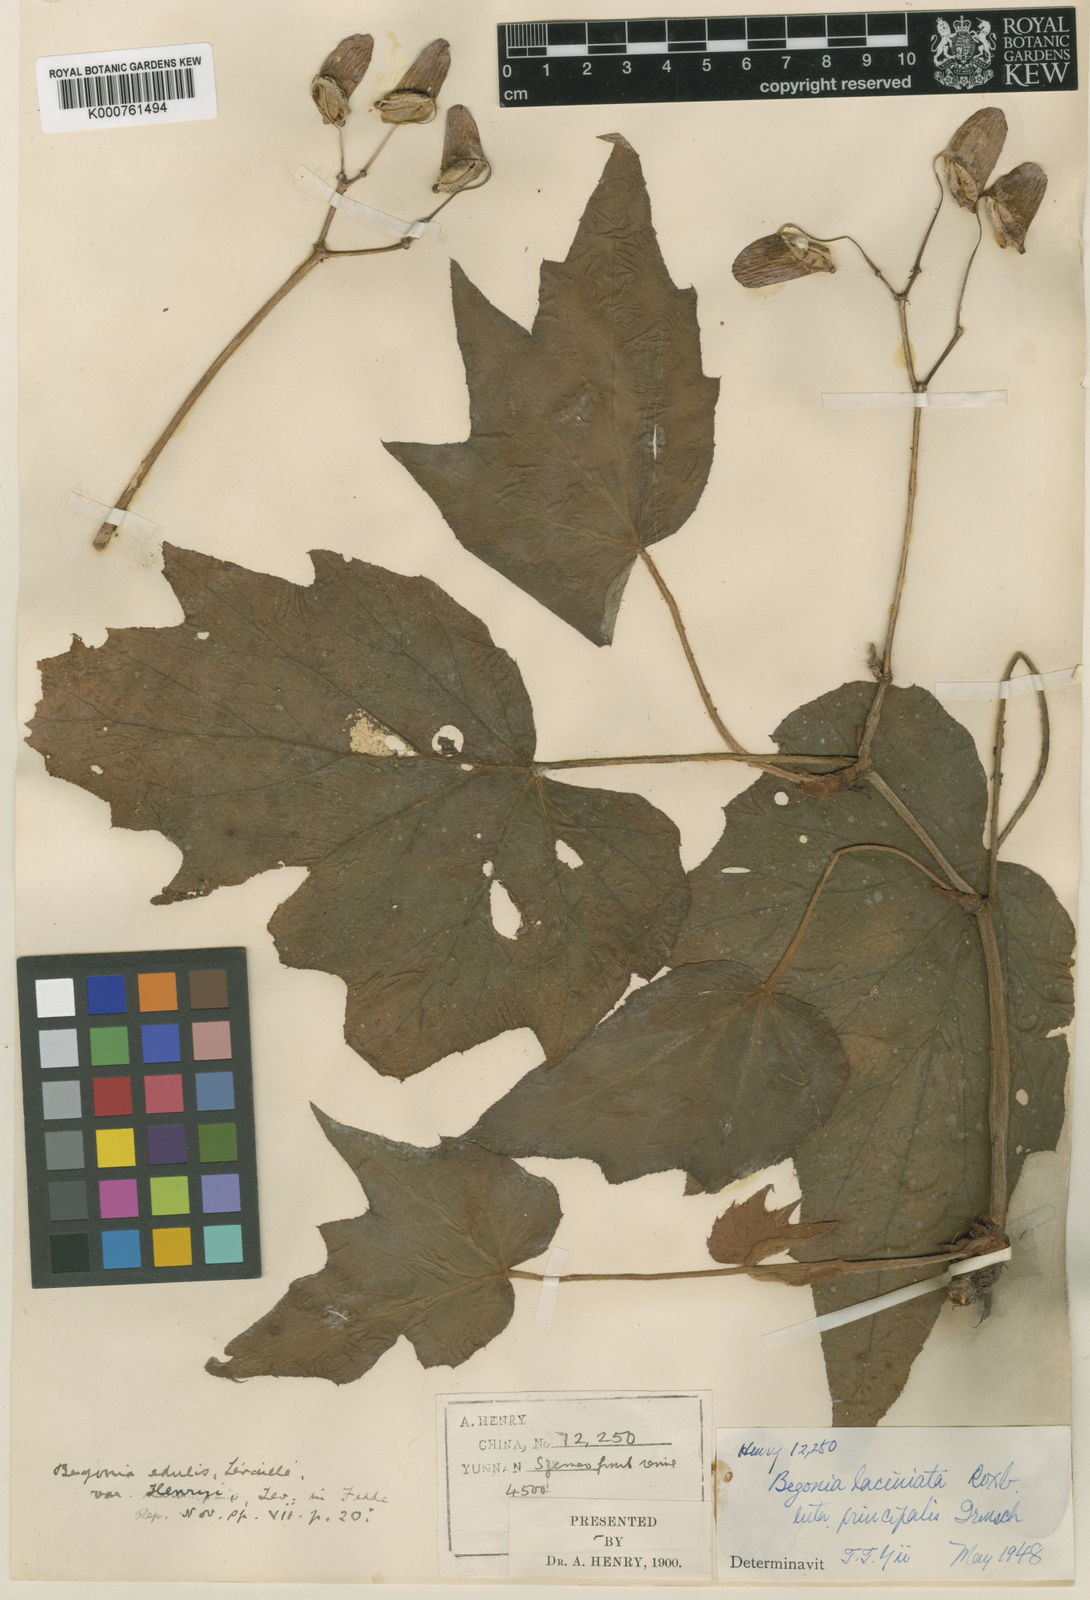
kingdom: Plantae
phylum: Tracheophyta
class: Magnoliopsida
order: Cucurbitales
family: Begoniaceae
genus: Begonia
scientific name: Begonia palmata
